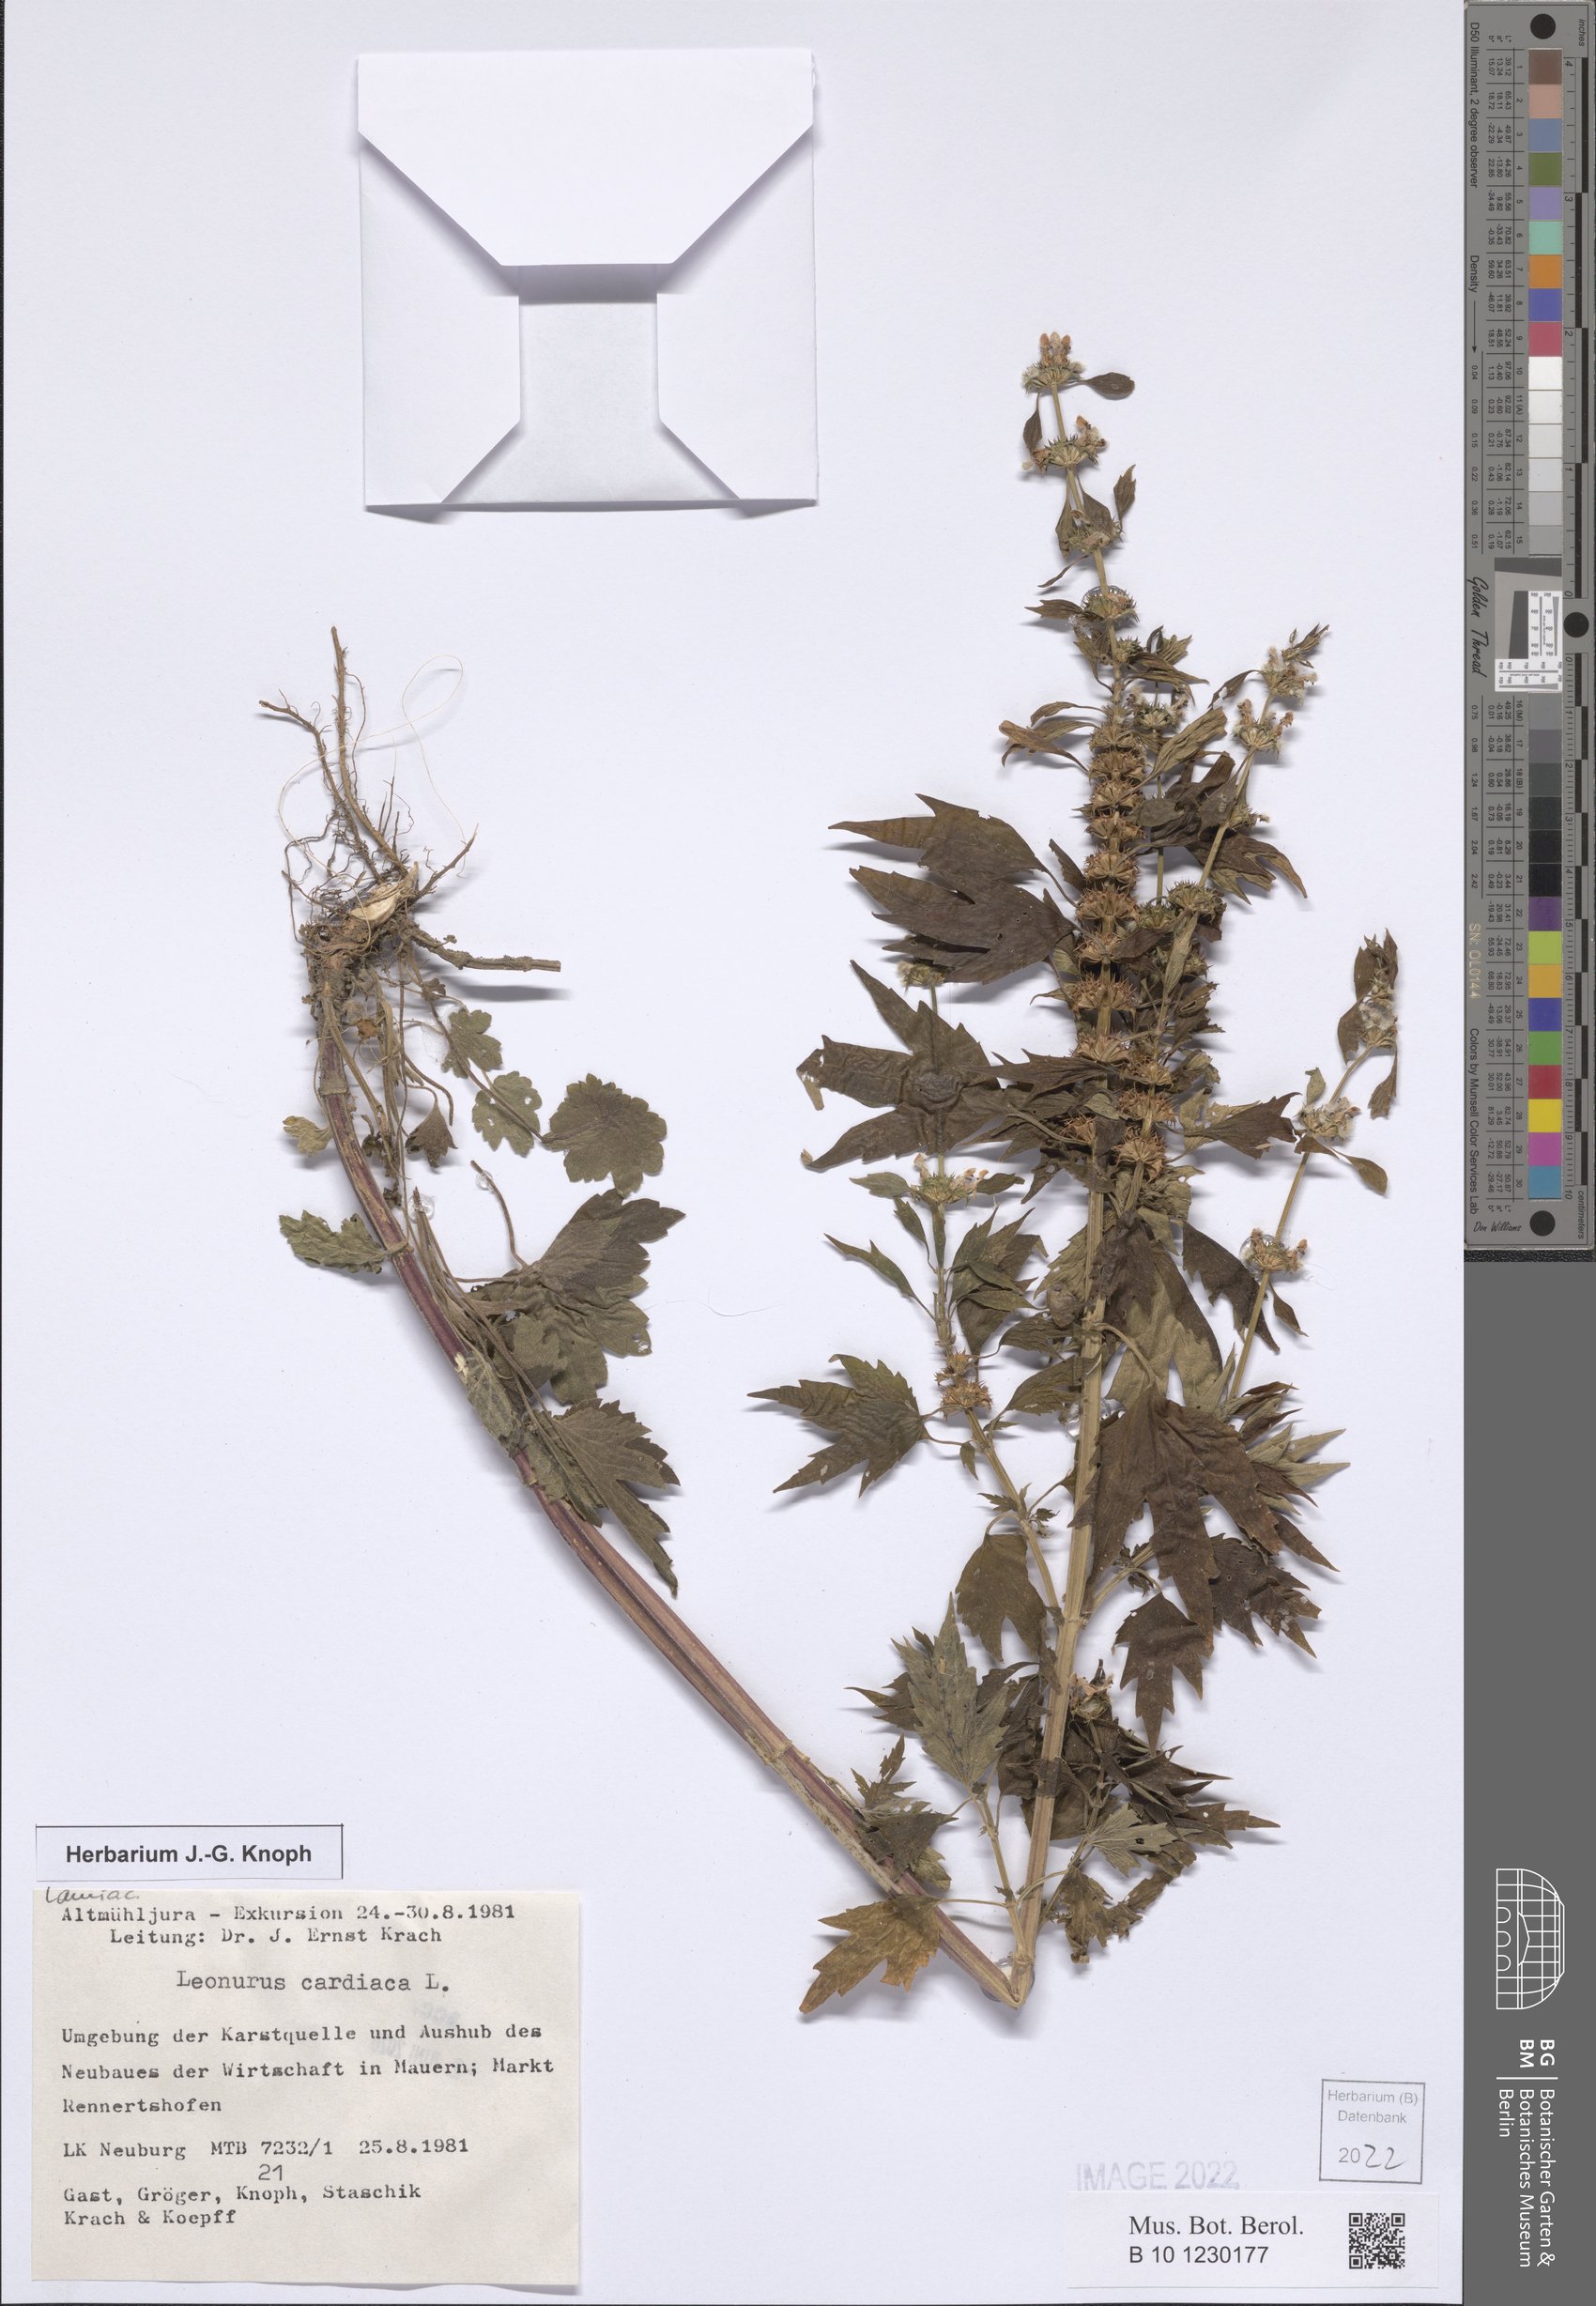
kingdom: Plantae
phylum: Tracheophyta
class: Magnoliopsida
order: Lamiales
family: Lamiaceae
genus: Leonurus
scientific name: Leonurus cardiaca
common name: Motherwort
